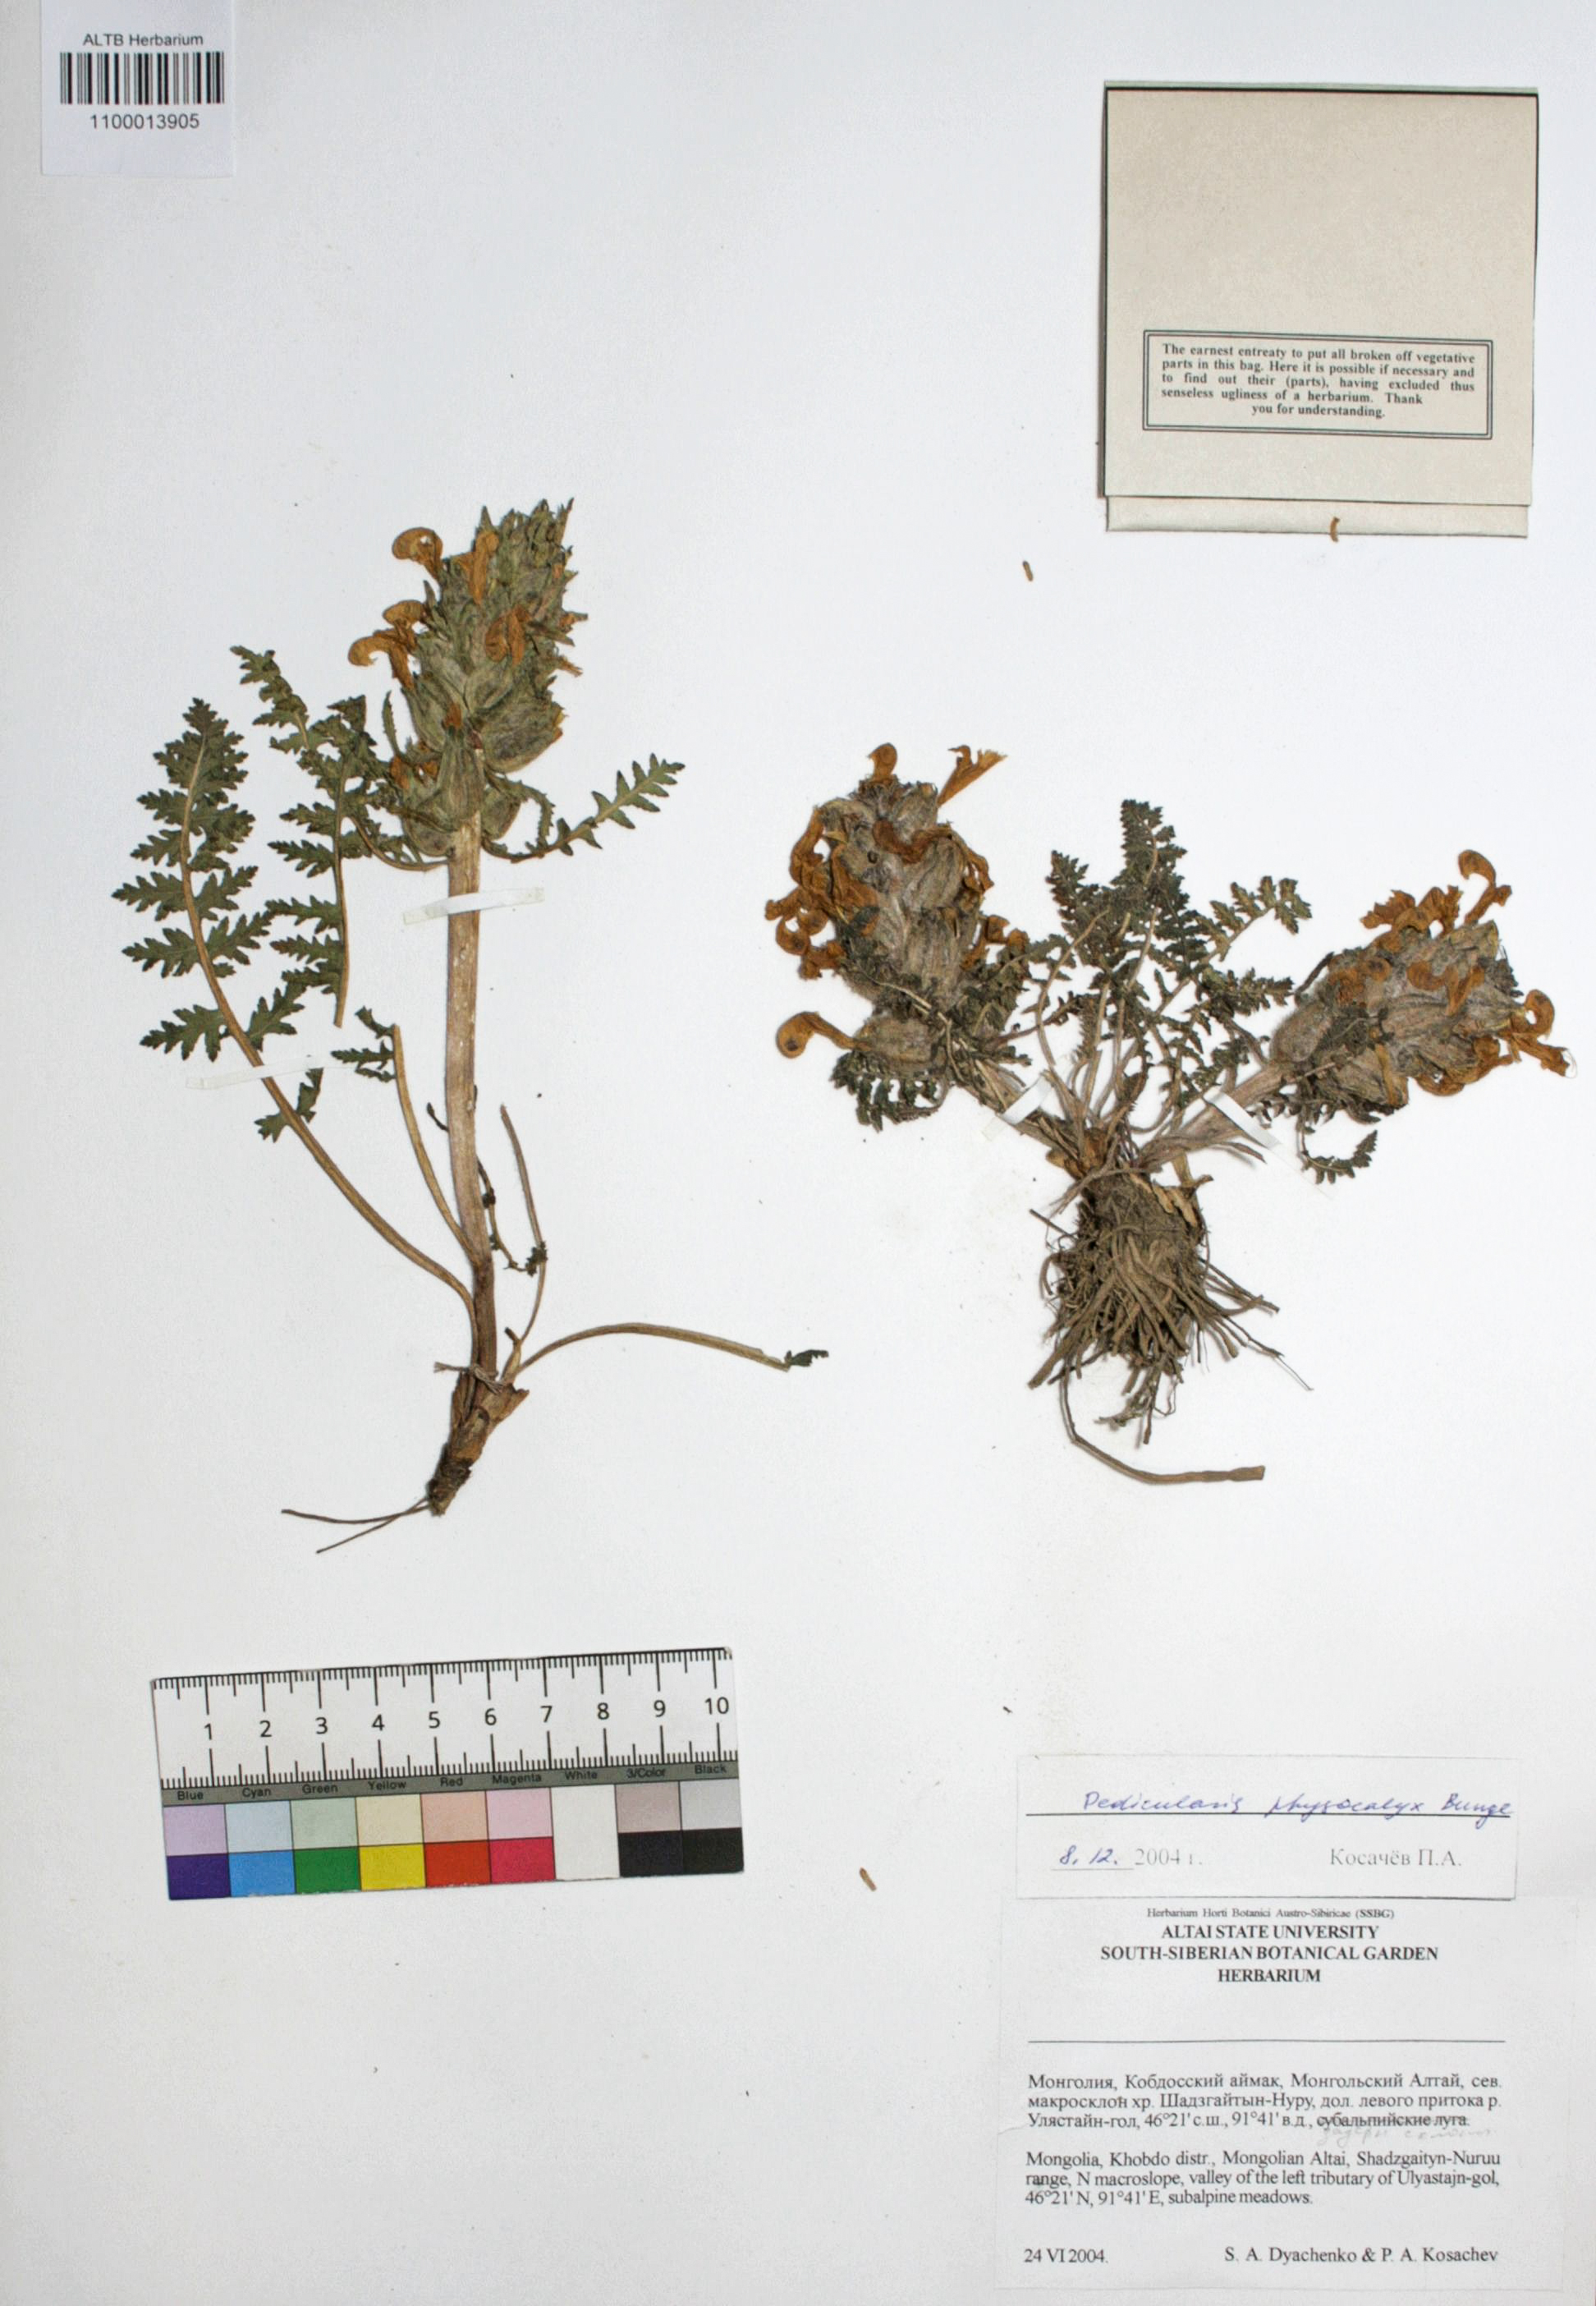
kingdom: Plantae
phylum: Tracheophyta
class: Magnoliopsida
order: Lamiales
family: Orobanchaceae
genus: Pedicularis
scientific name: Pedicularis physocalyx
